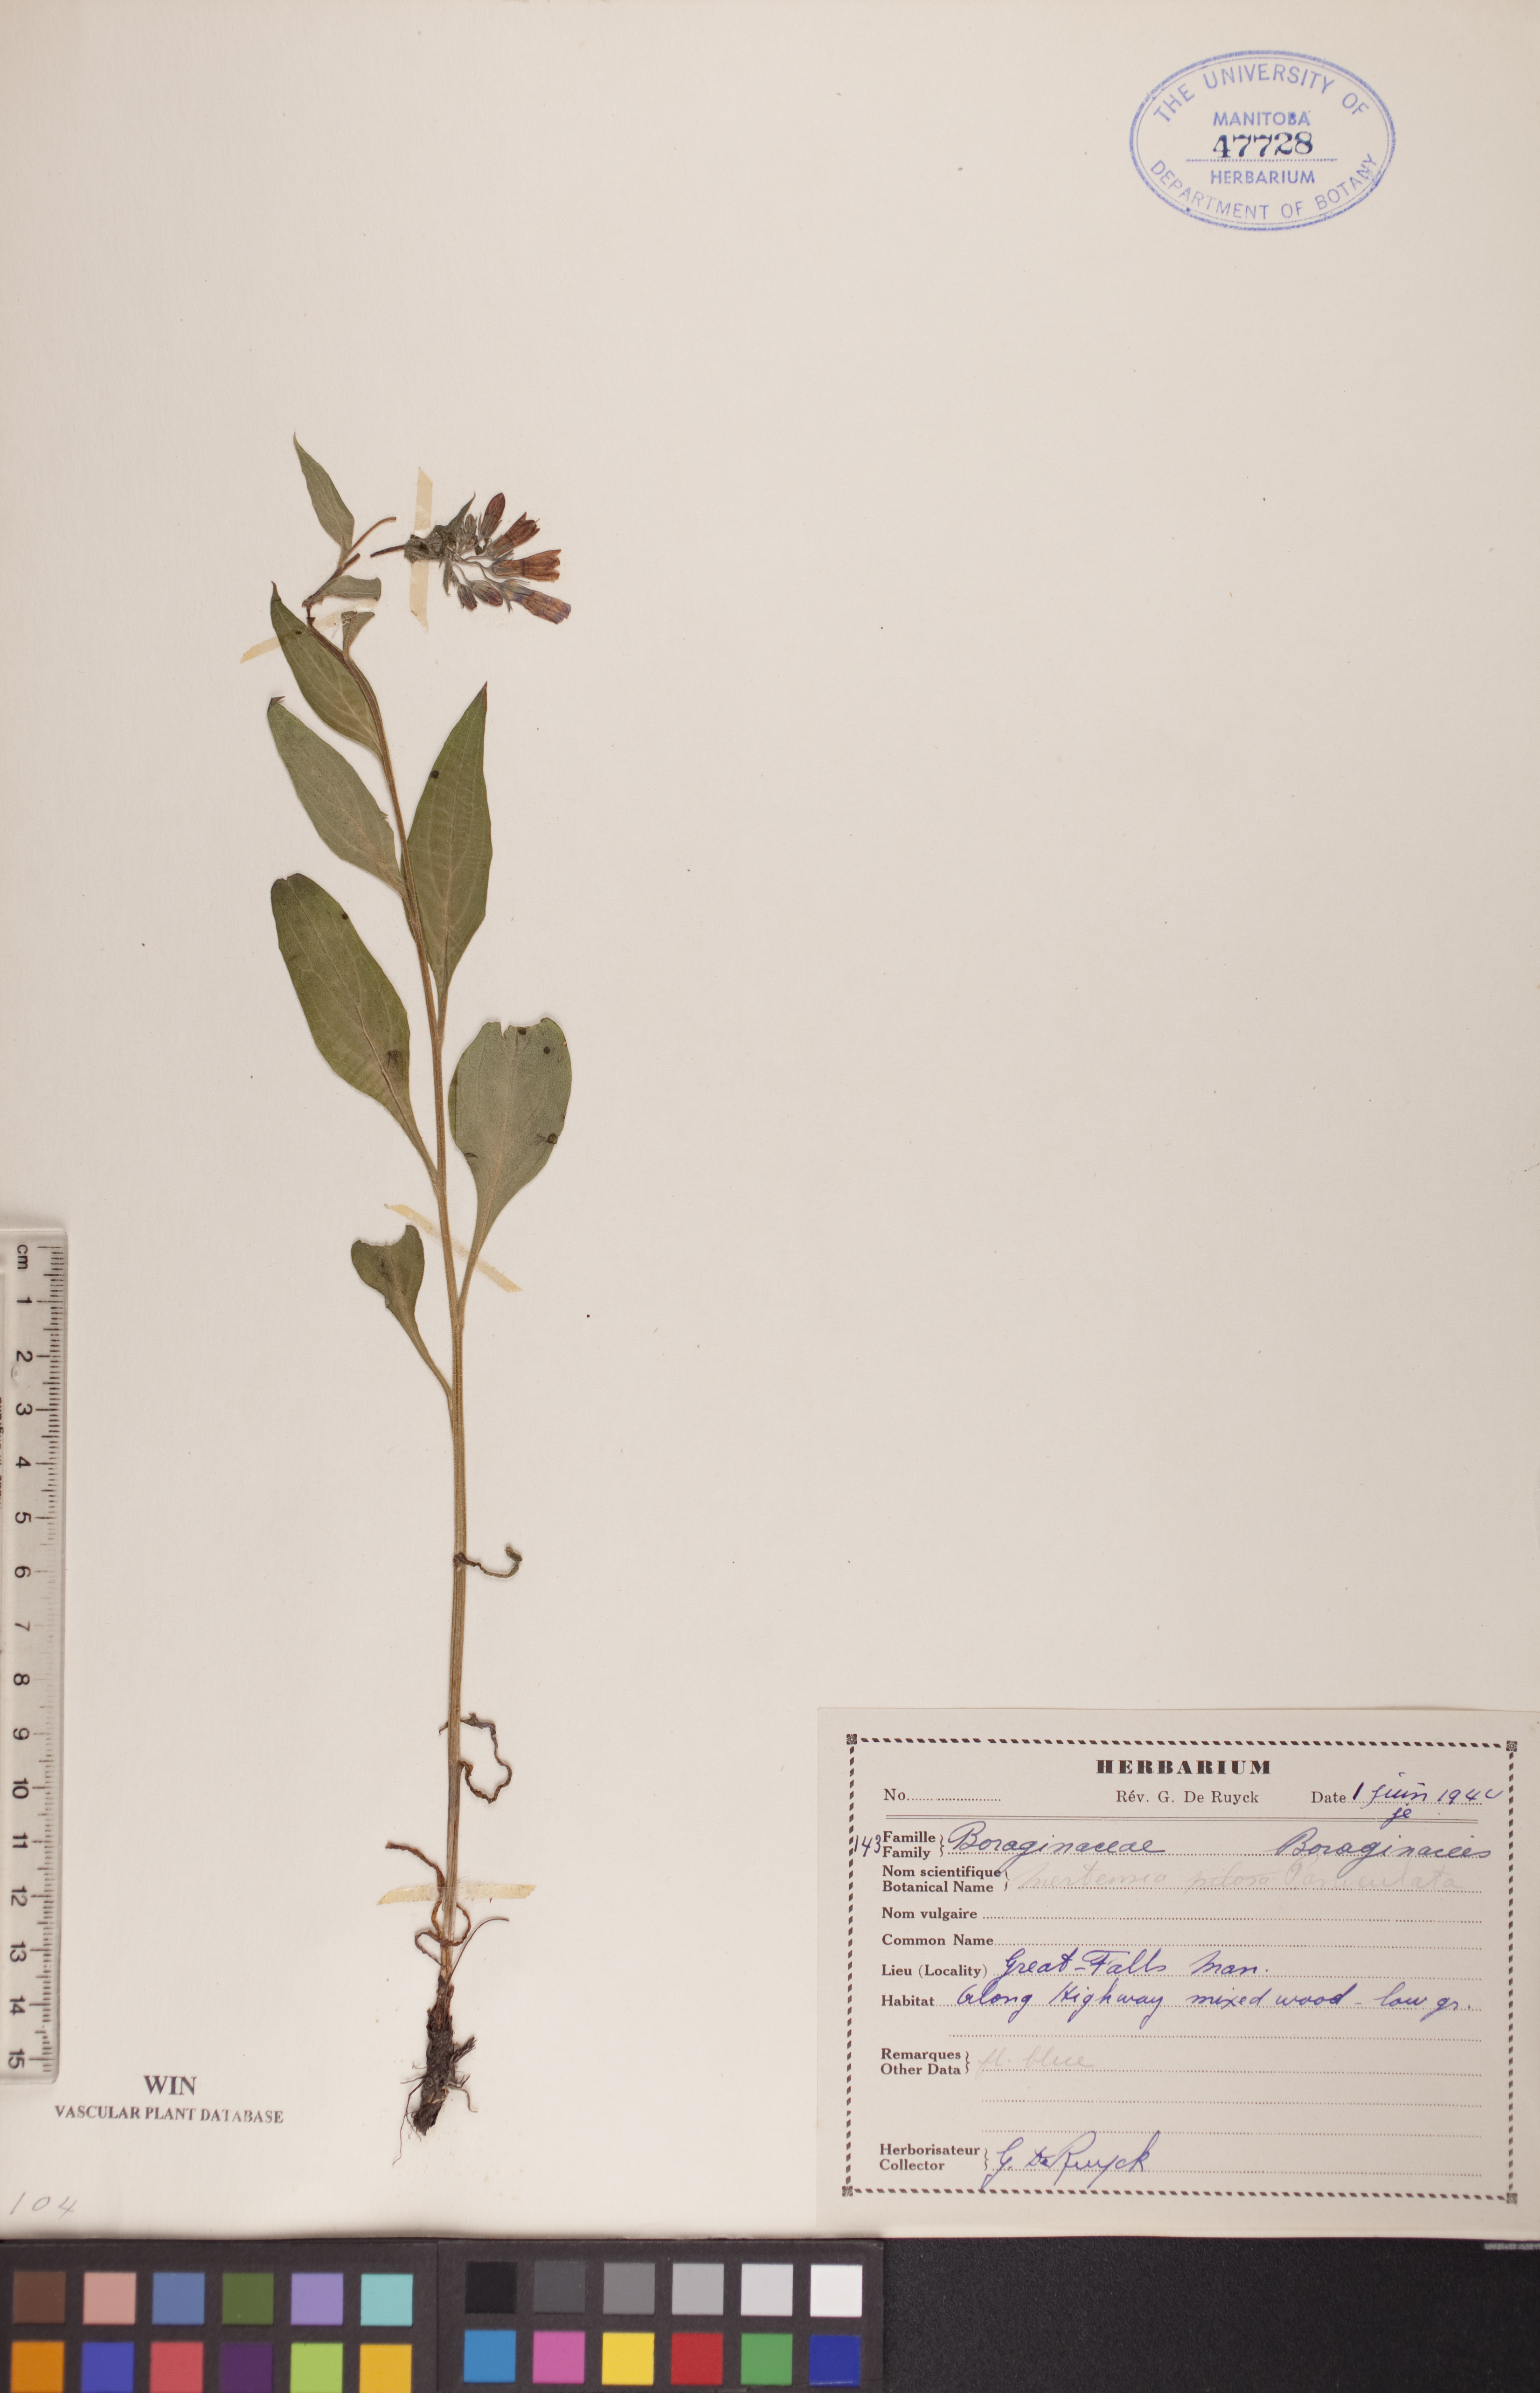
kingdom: Plantae
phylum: Tracheophyta
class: Magnoliopsida
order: Boraginales
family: Boraginaceae
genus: Mertensia
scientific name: Mertensia paniculata
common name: Panicled bluebells
